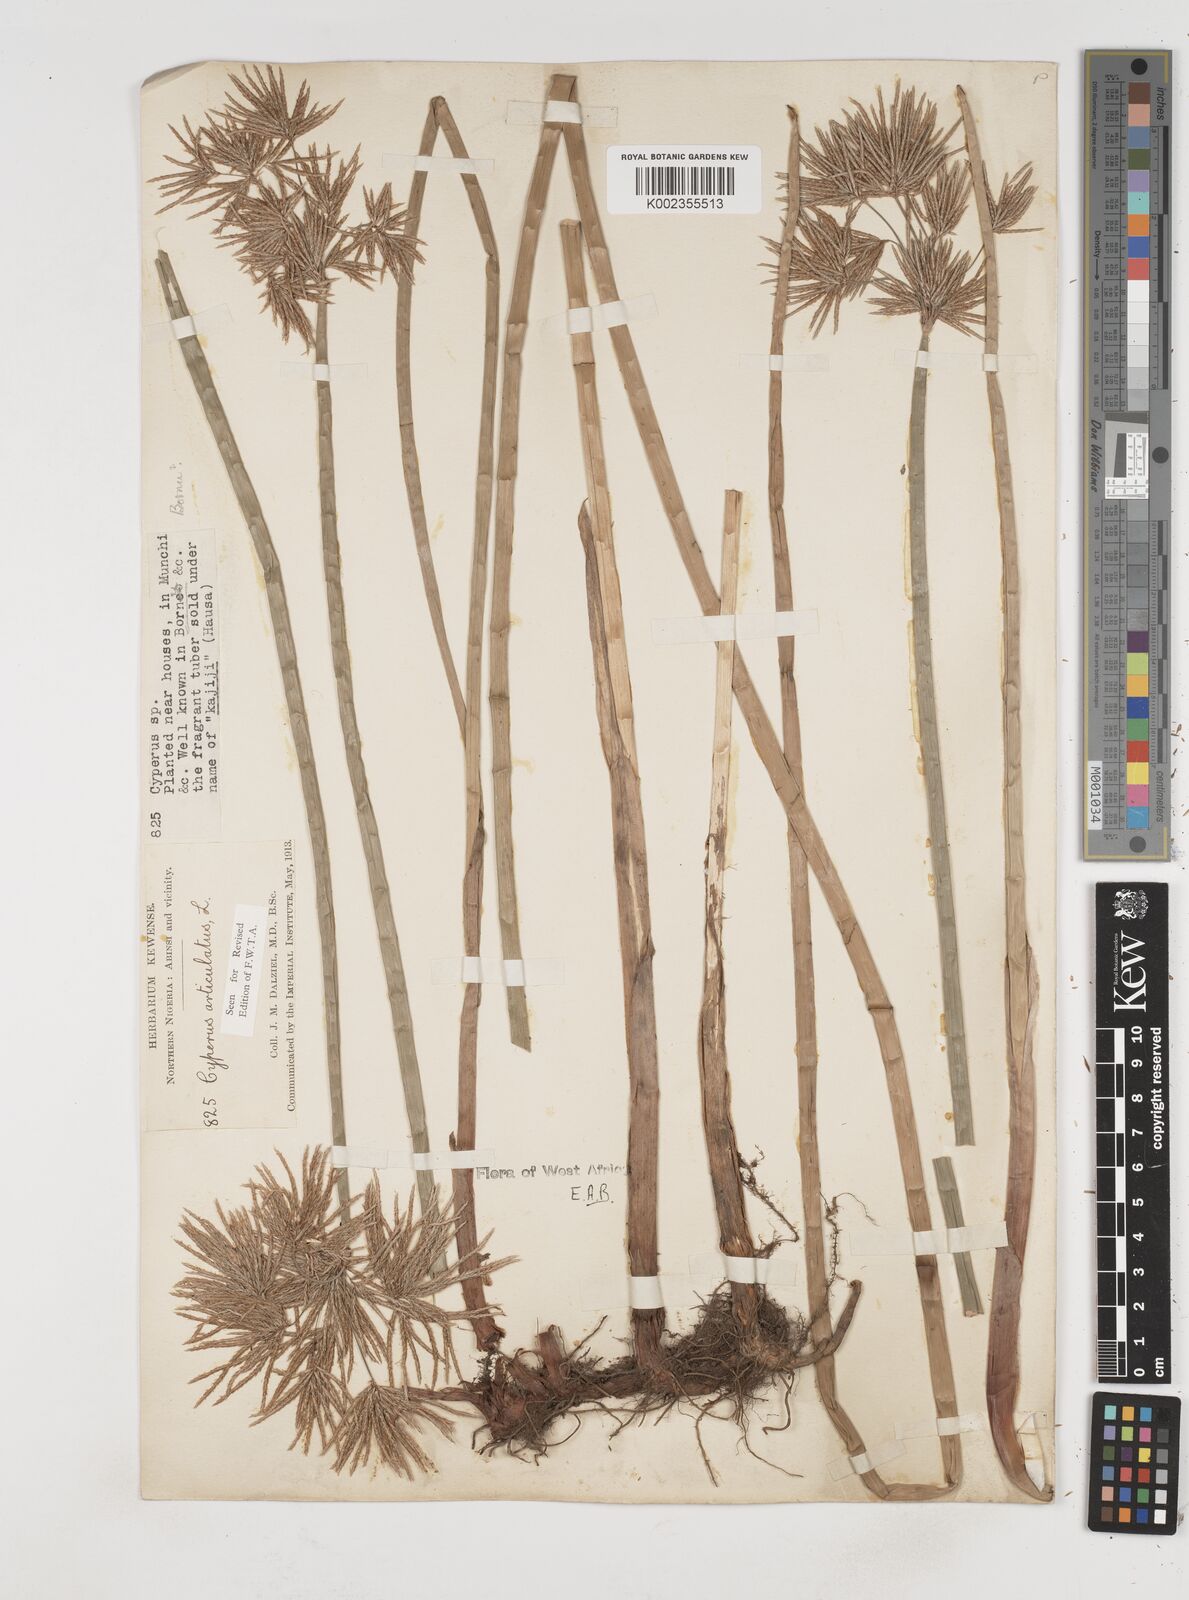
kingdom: Plantae
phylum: Tracheophyta
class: Liliopsida
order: Poales
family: Cyperaceae
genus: Cyperus
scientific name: Cyperus articulatus
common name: Jointed flatsedge
